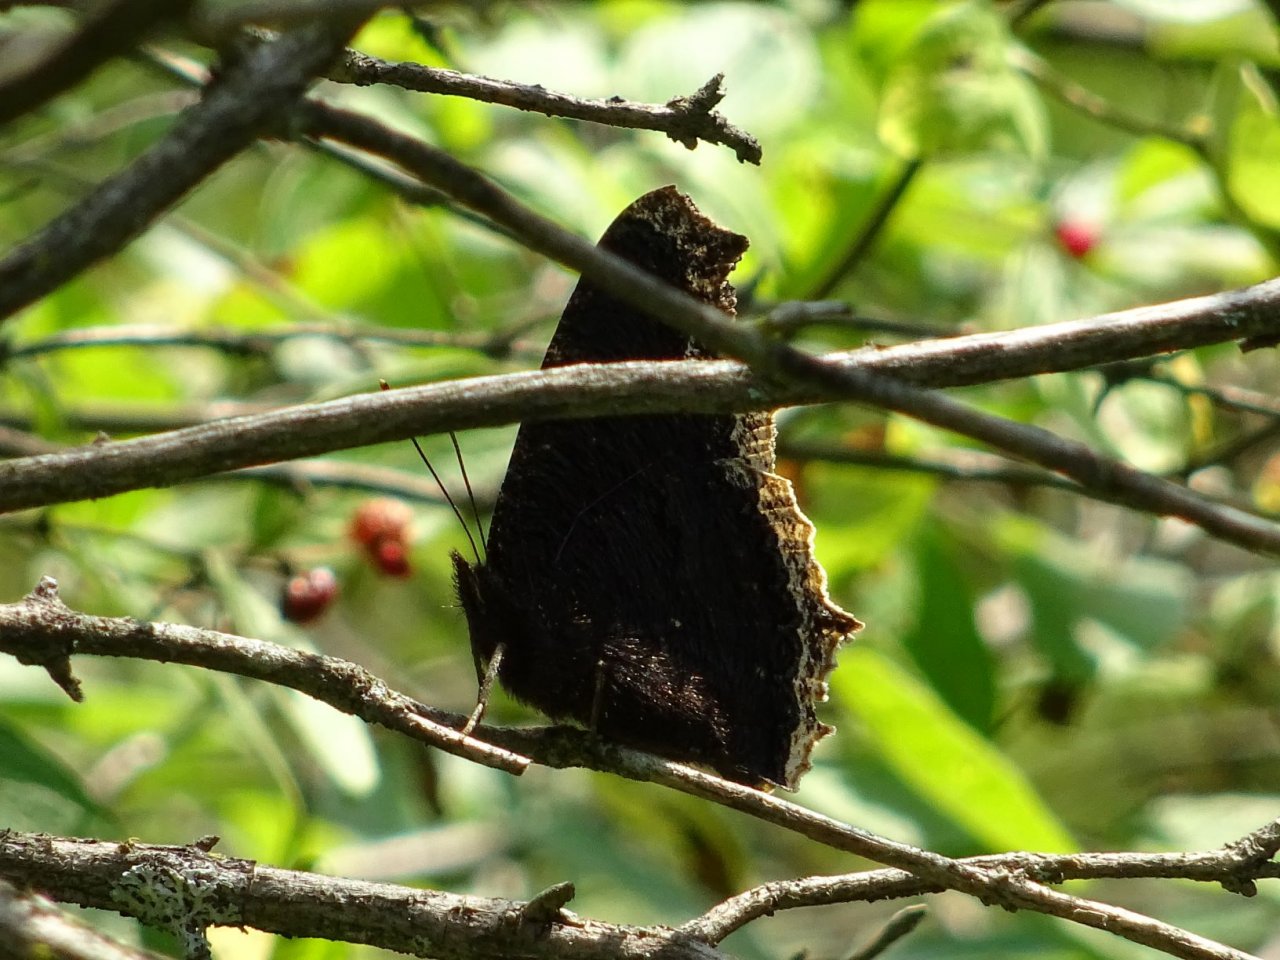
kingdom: Animalia
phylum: Arthropoda
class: Insecta
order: Lepidoptera
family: Nymphalidae
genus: Nymphalis
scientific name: Nymphalis antiopa
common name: Mourning Cloak
